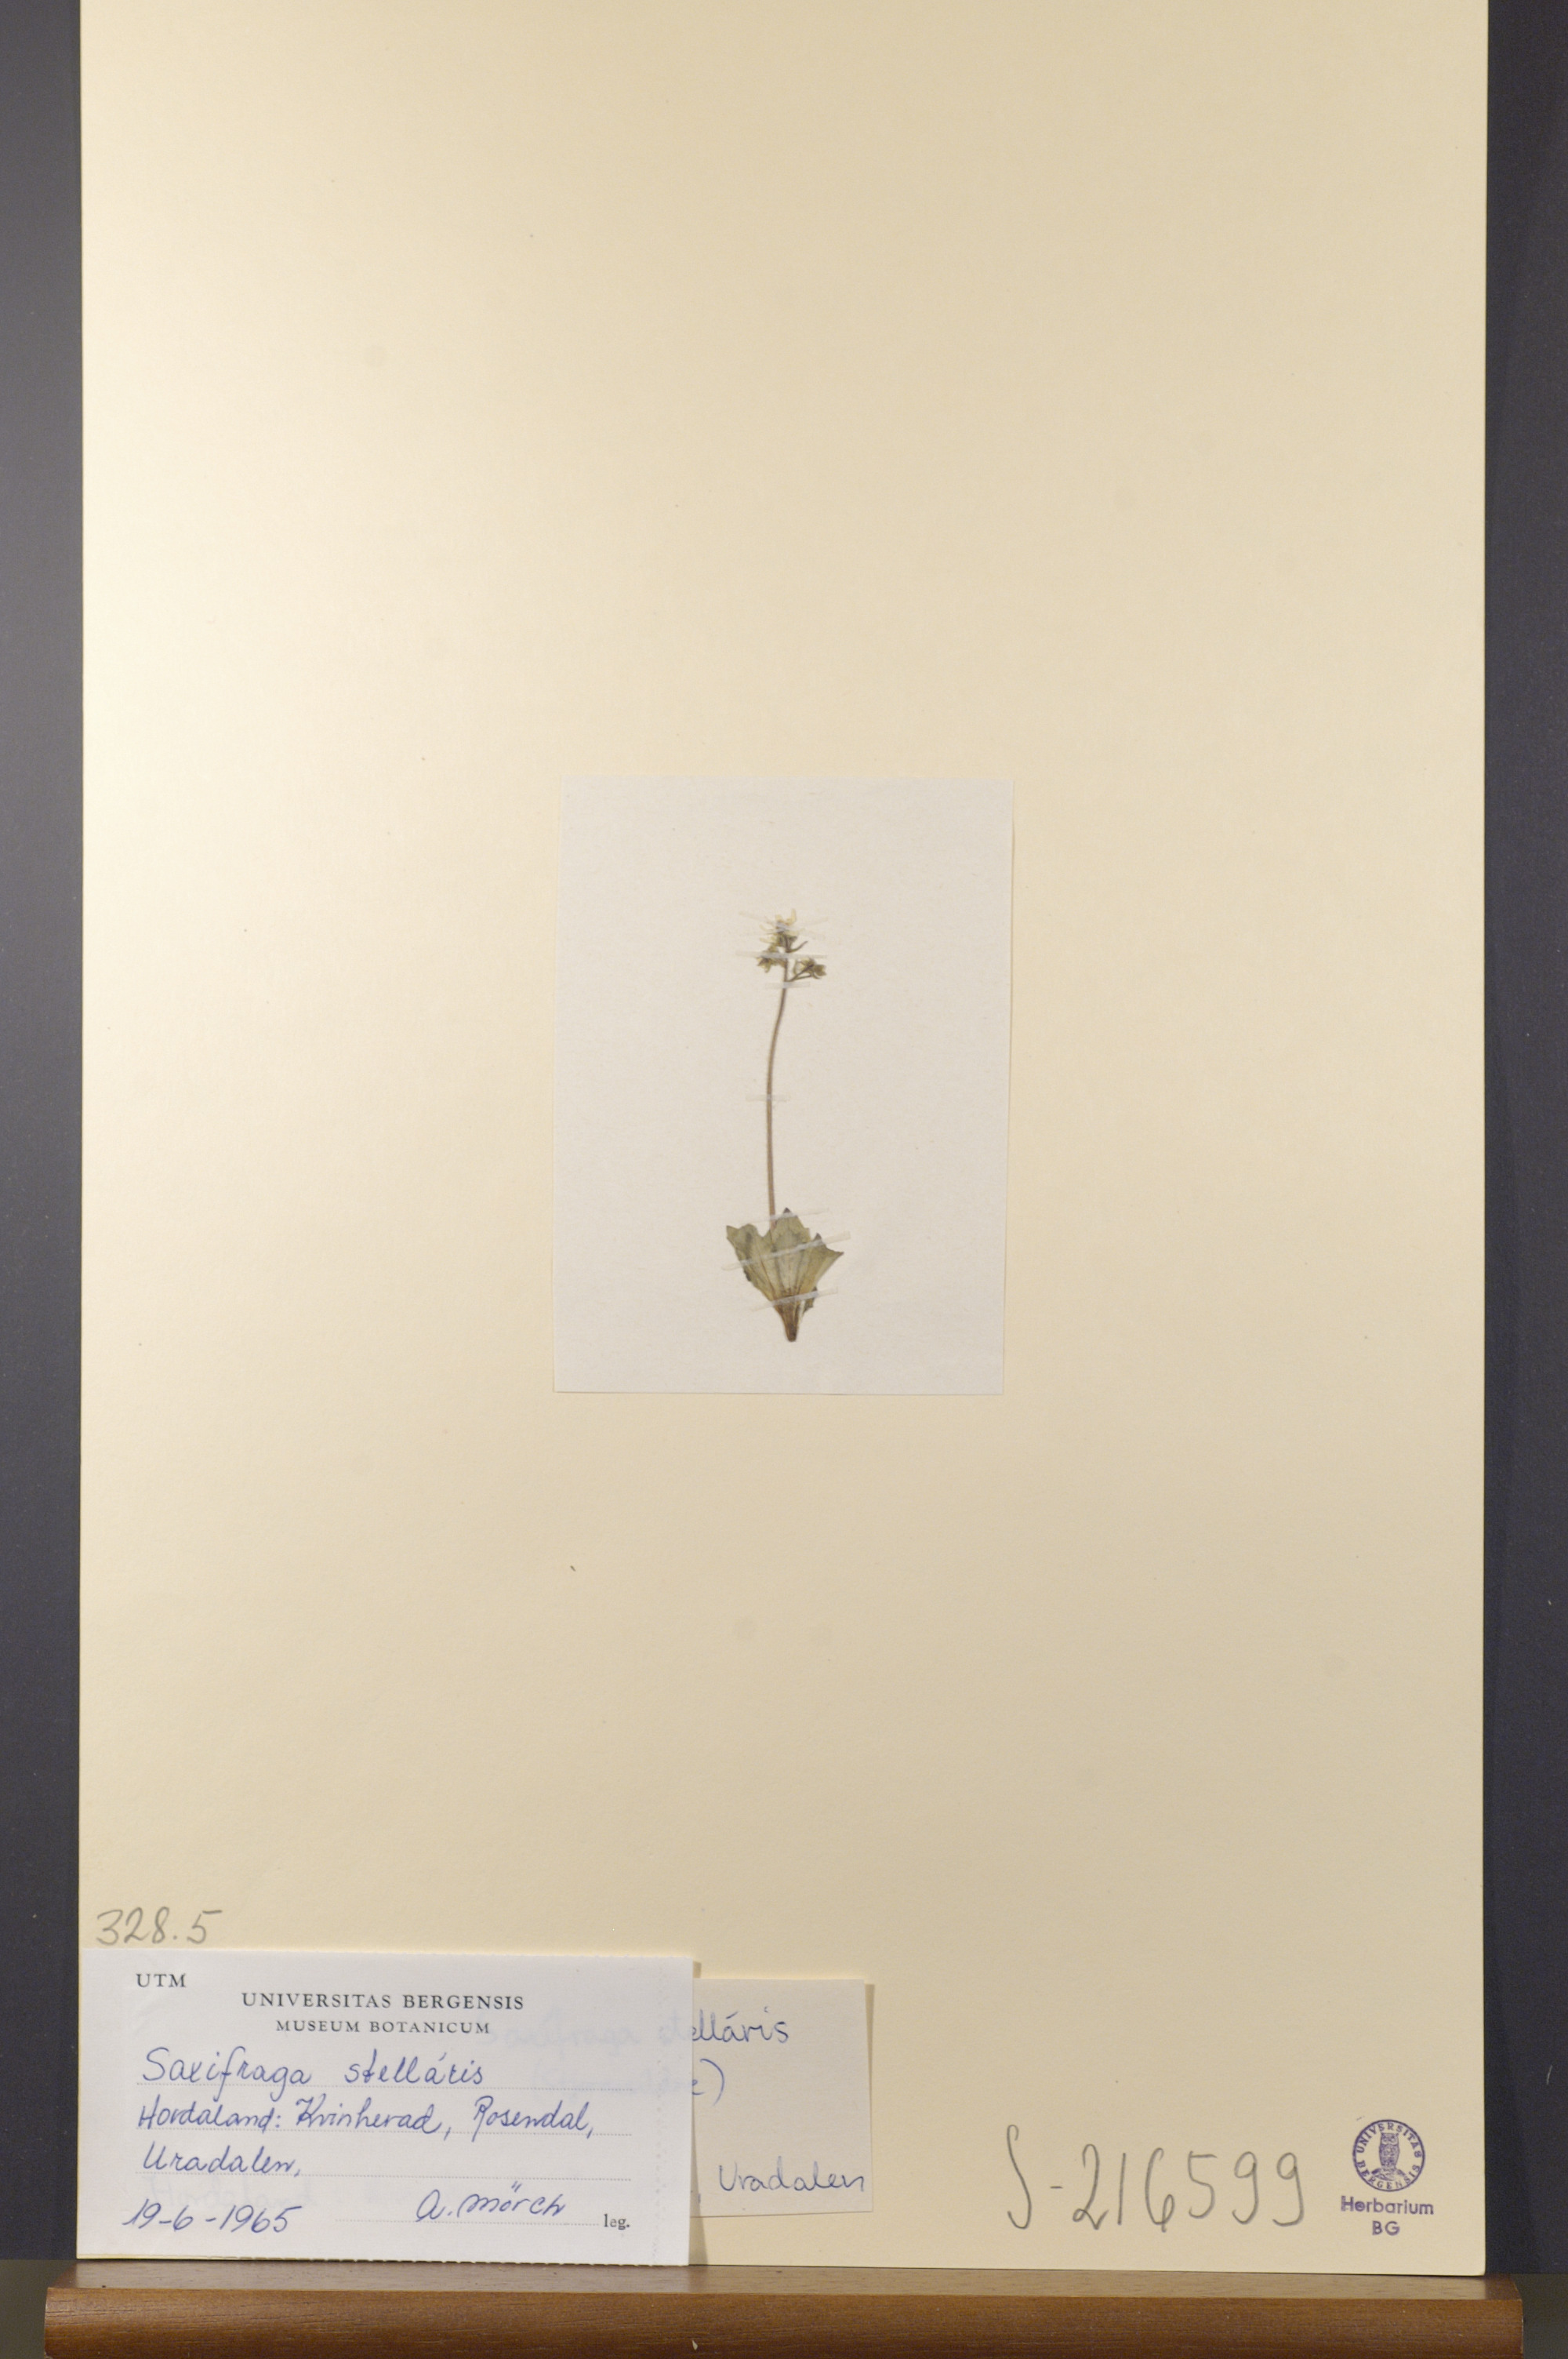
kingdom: Plantae
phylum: Tracheophyta
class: Magnoliopsida
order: Saxifragales
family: Saxifragaceae
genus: Micranthes
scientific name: Micranthes stellaris
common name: Starry saxifrage
